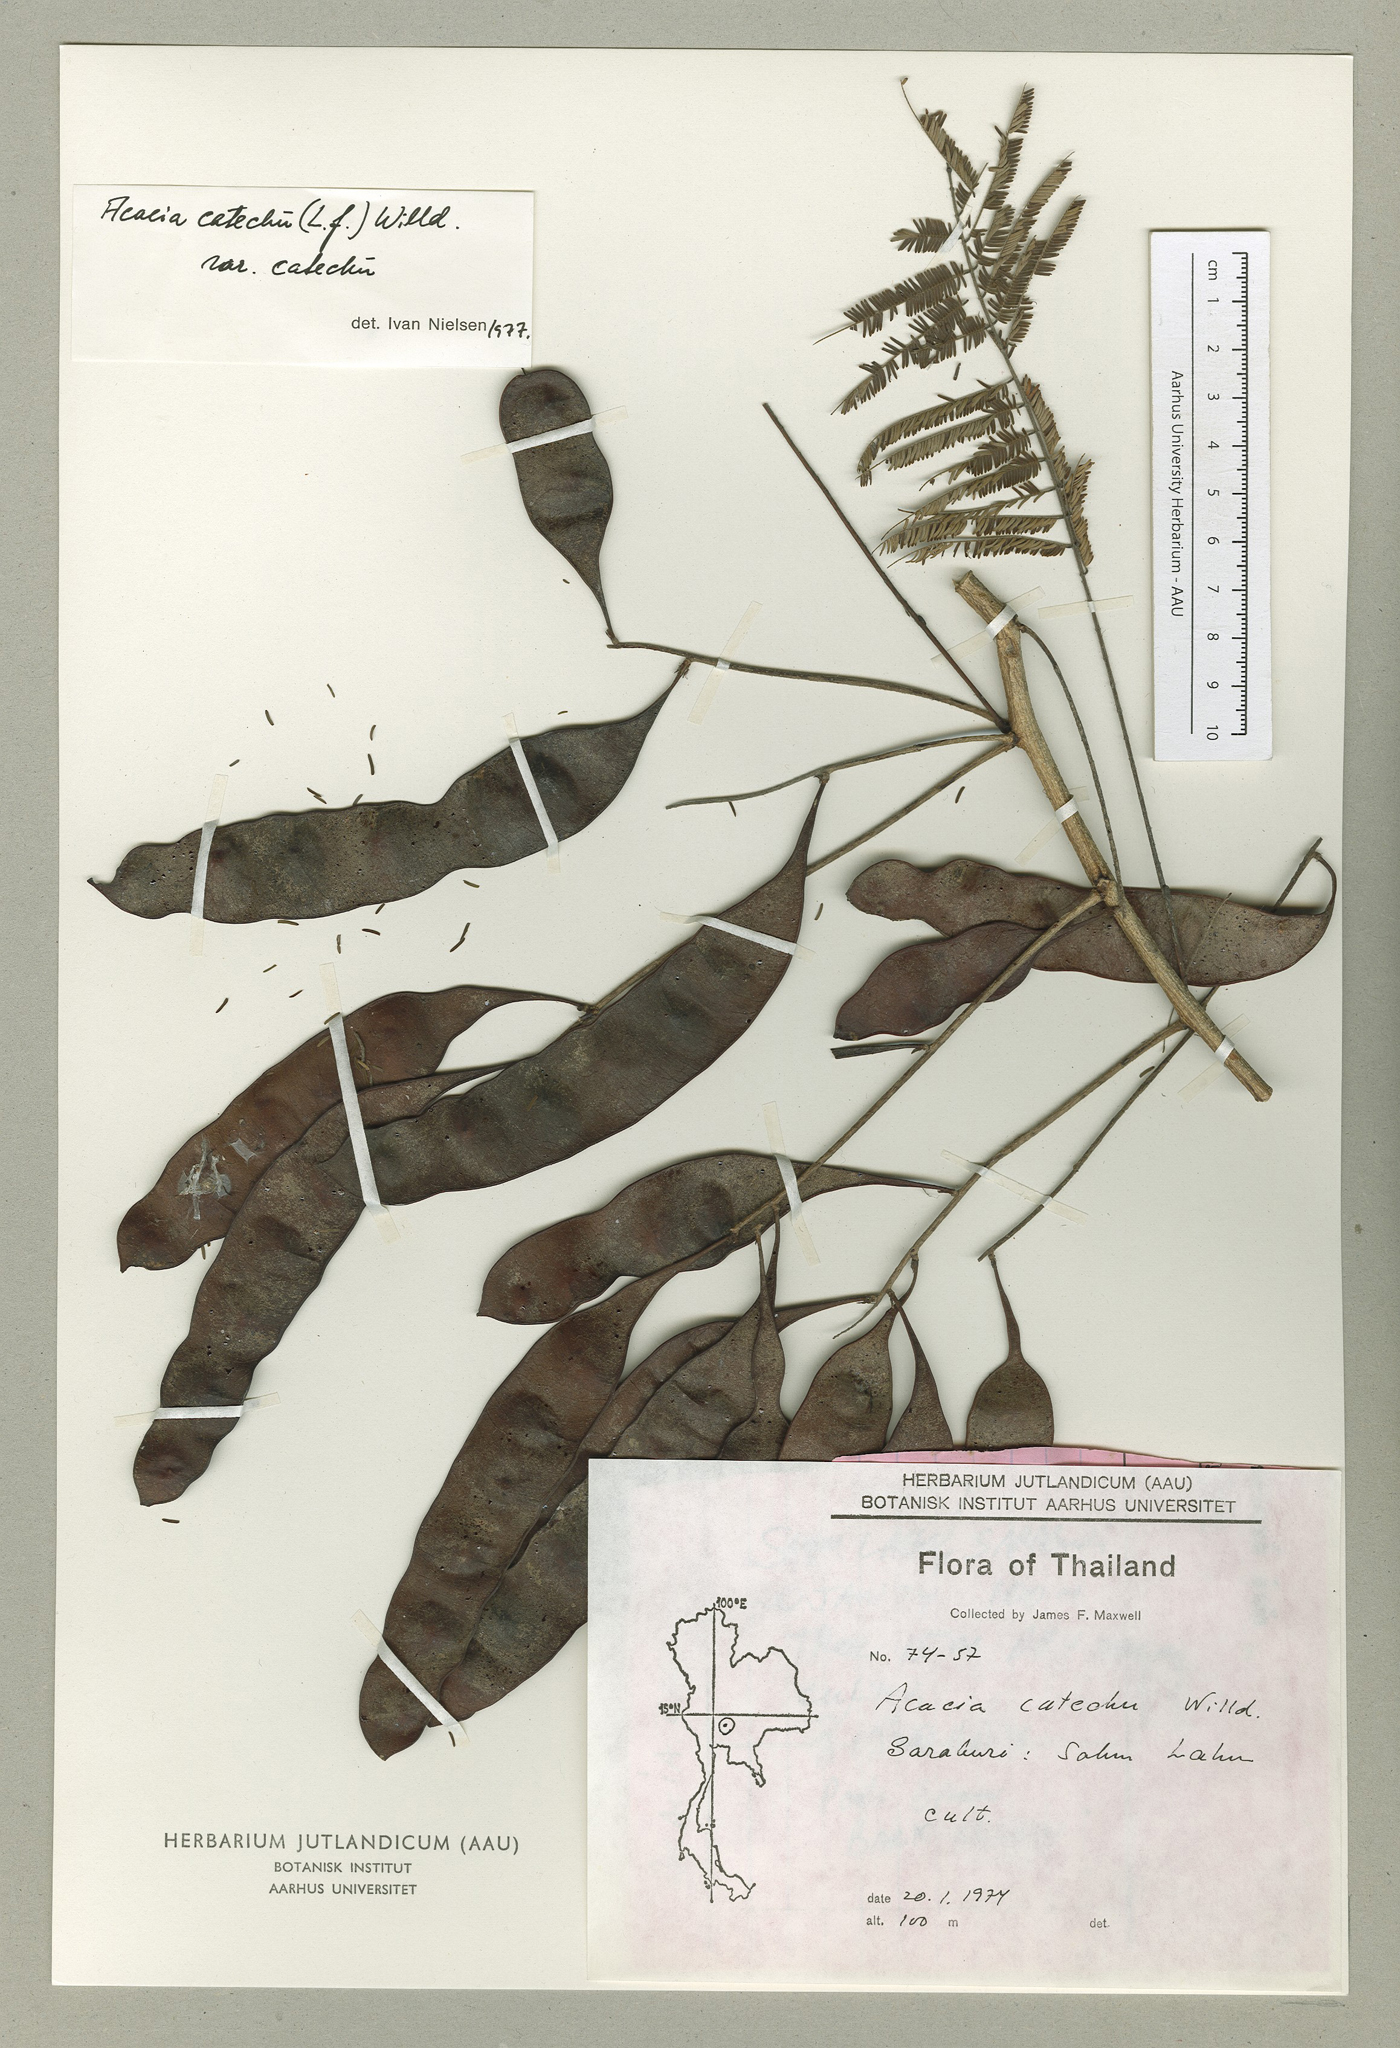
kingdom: Plantae
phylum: Tracheophyta
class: Magnoliopsida
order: Fabales
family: Fabaceae
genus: Senegalia
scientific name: Senegalia catechu
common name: Black cutch
